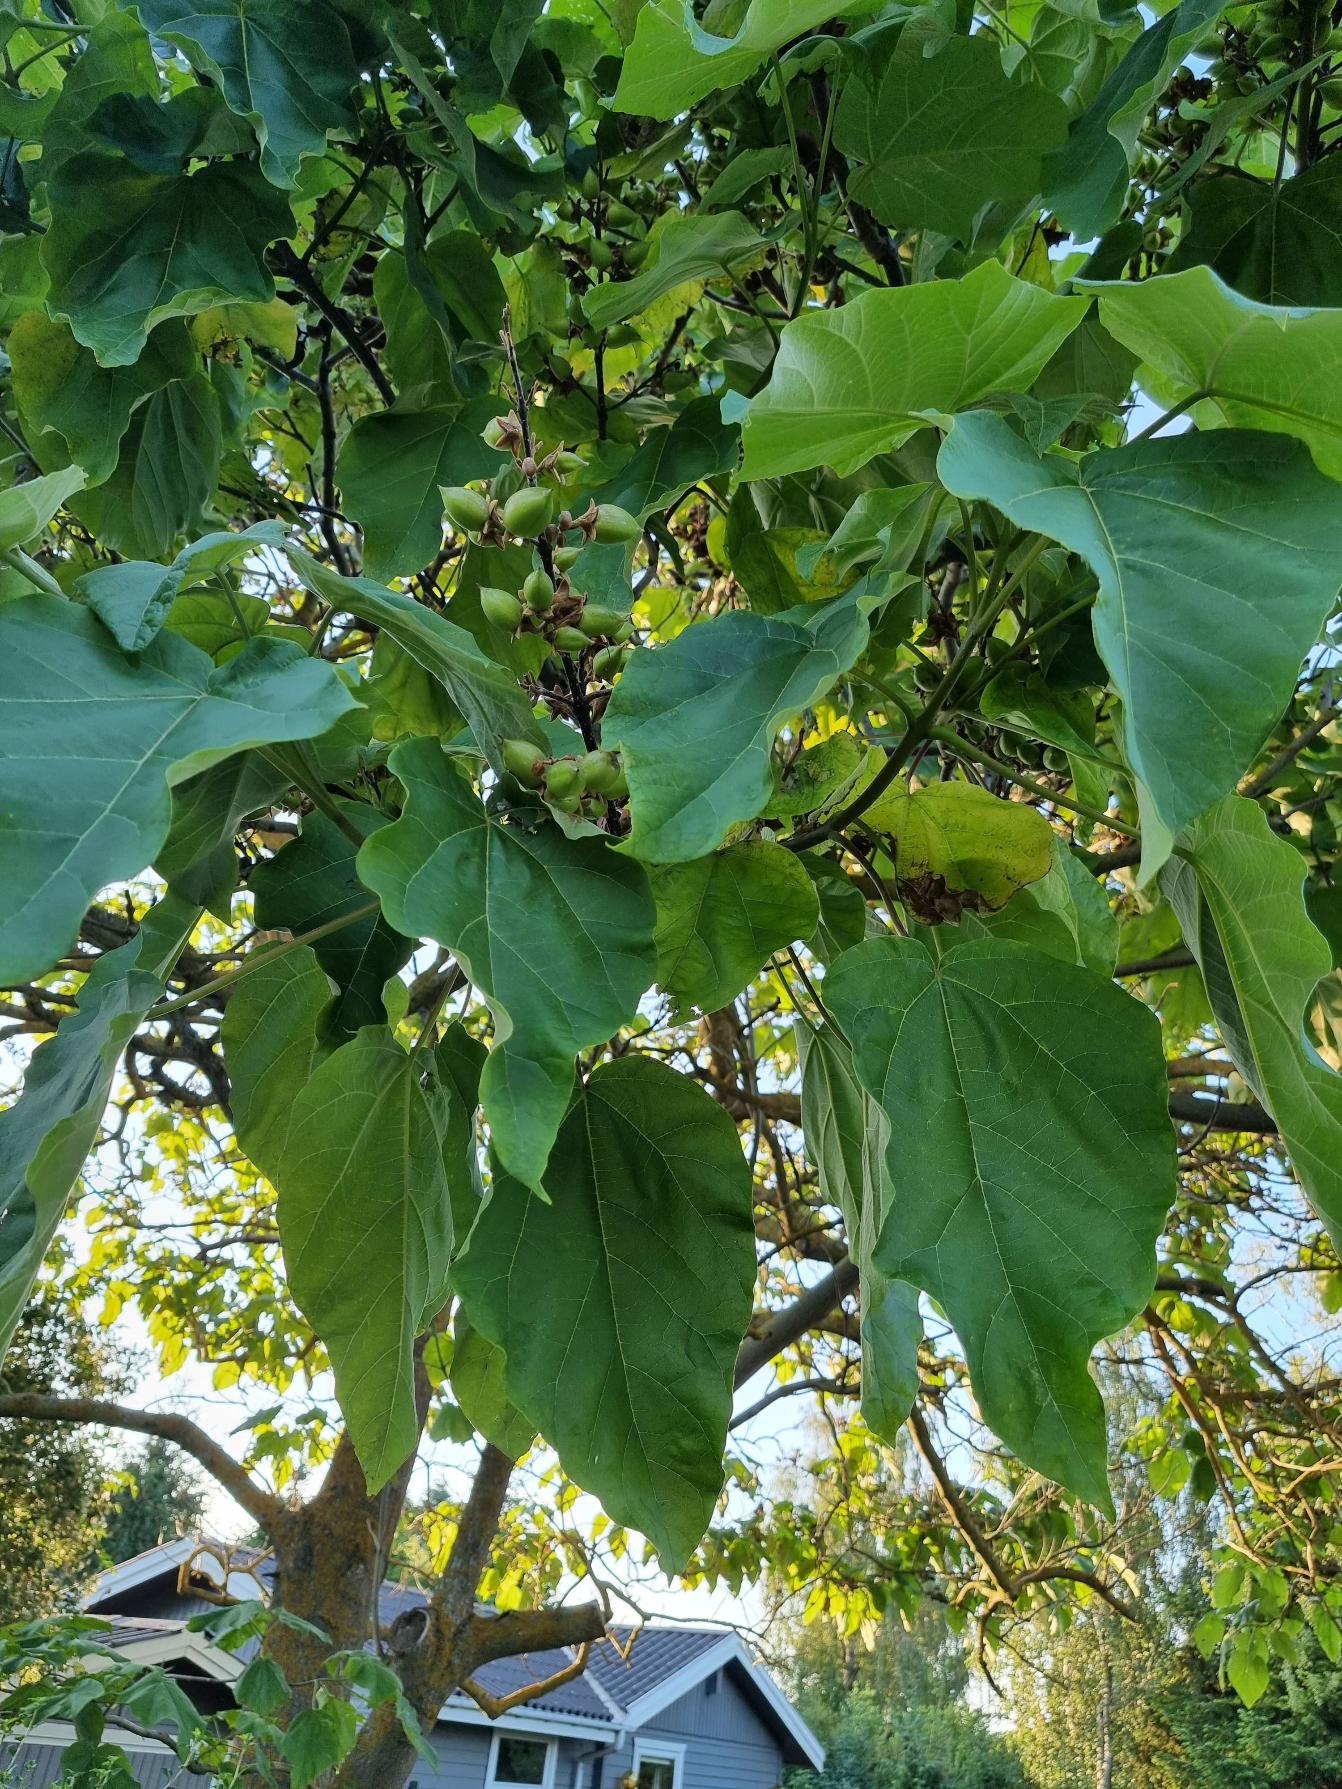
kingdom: Plantae
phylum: Tracheophyta
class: Magnoliopsida
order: Lamiales
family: Paulowniaceae
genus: Paulownia
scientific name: Paulownia tomentosa
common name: Kejsertræ
